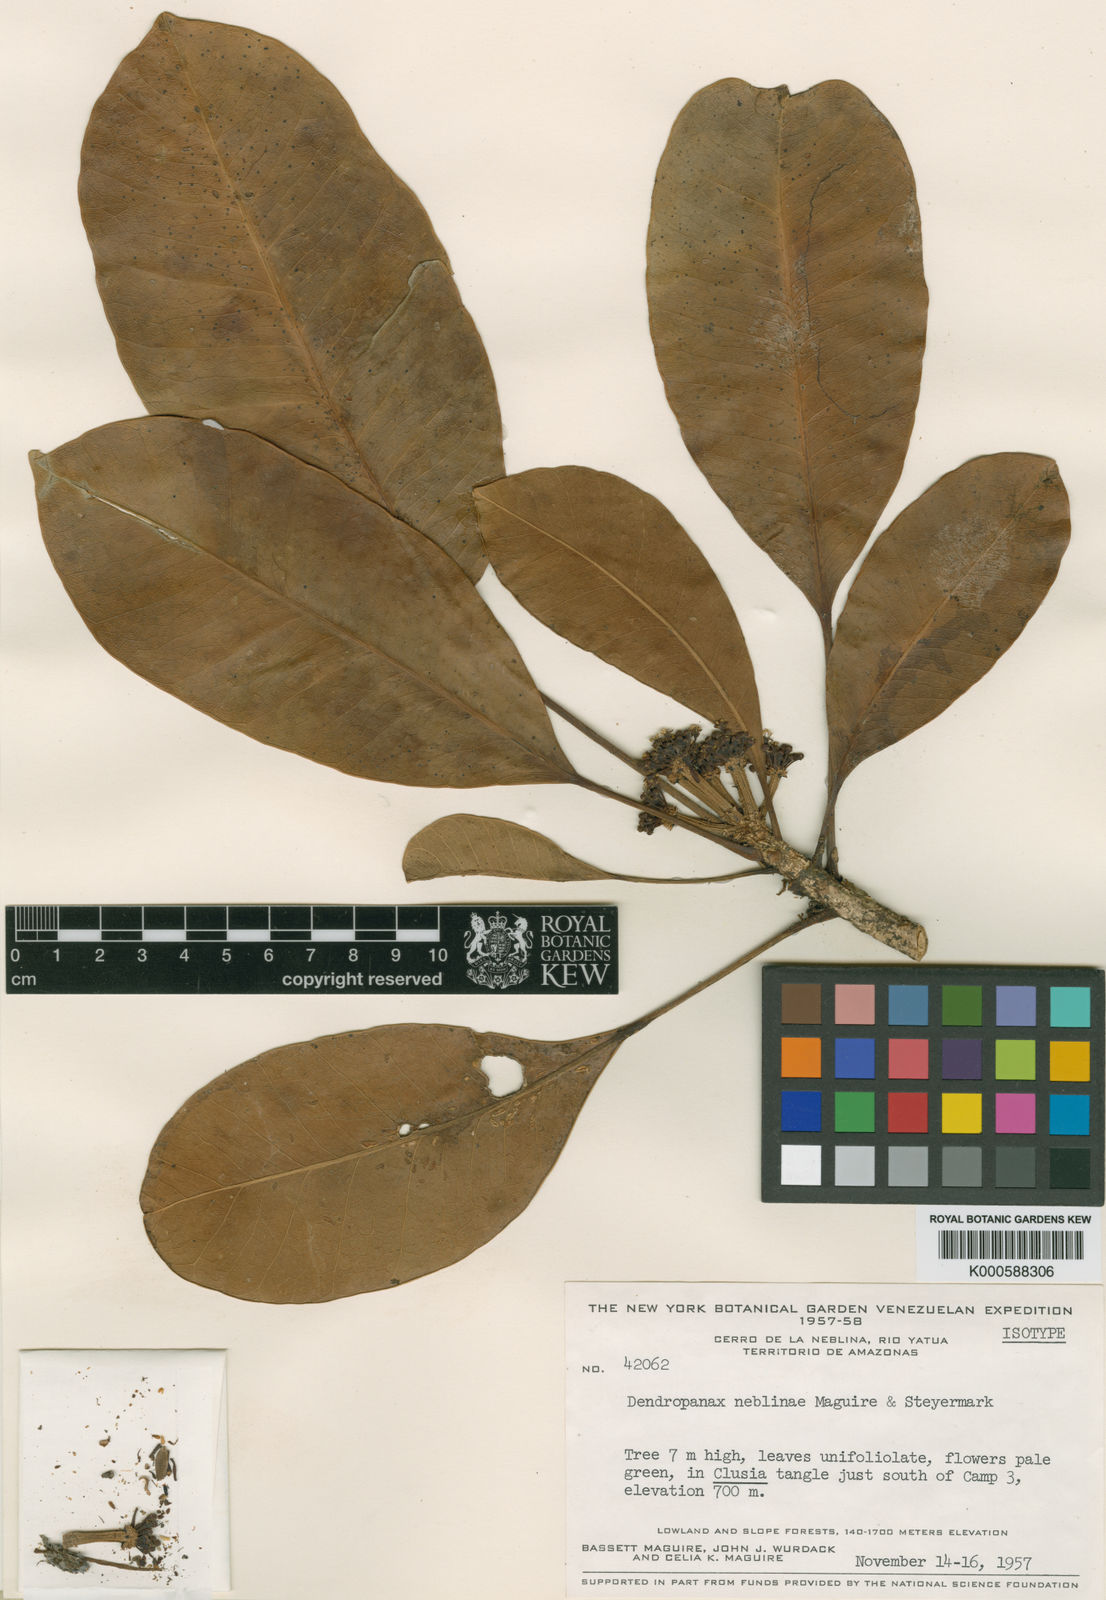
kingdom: Plantae
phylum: Tracheophyta
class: Magnoliopsida
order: Apiales
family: Araliaceae
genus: Dendropanax
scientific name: Dendropanax neblinae
